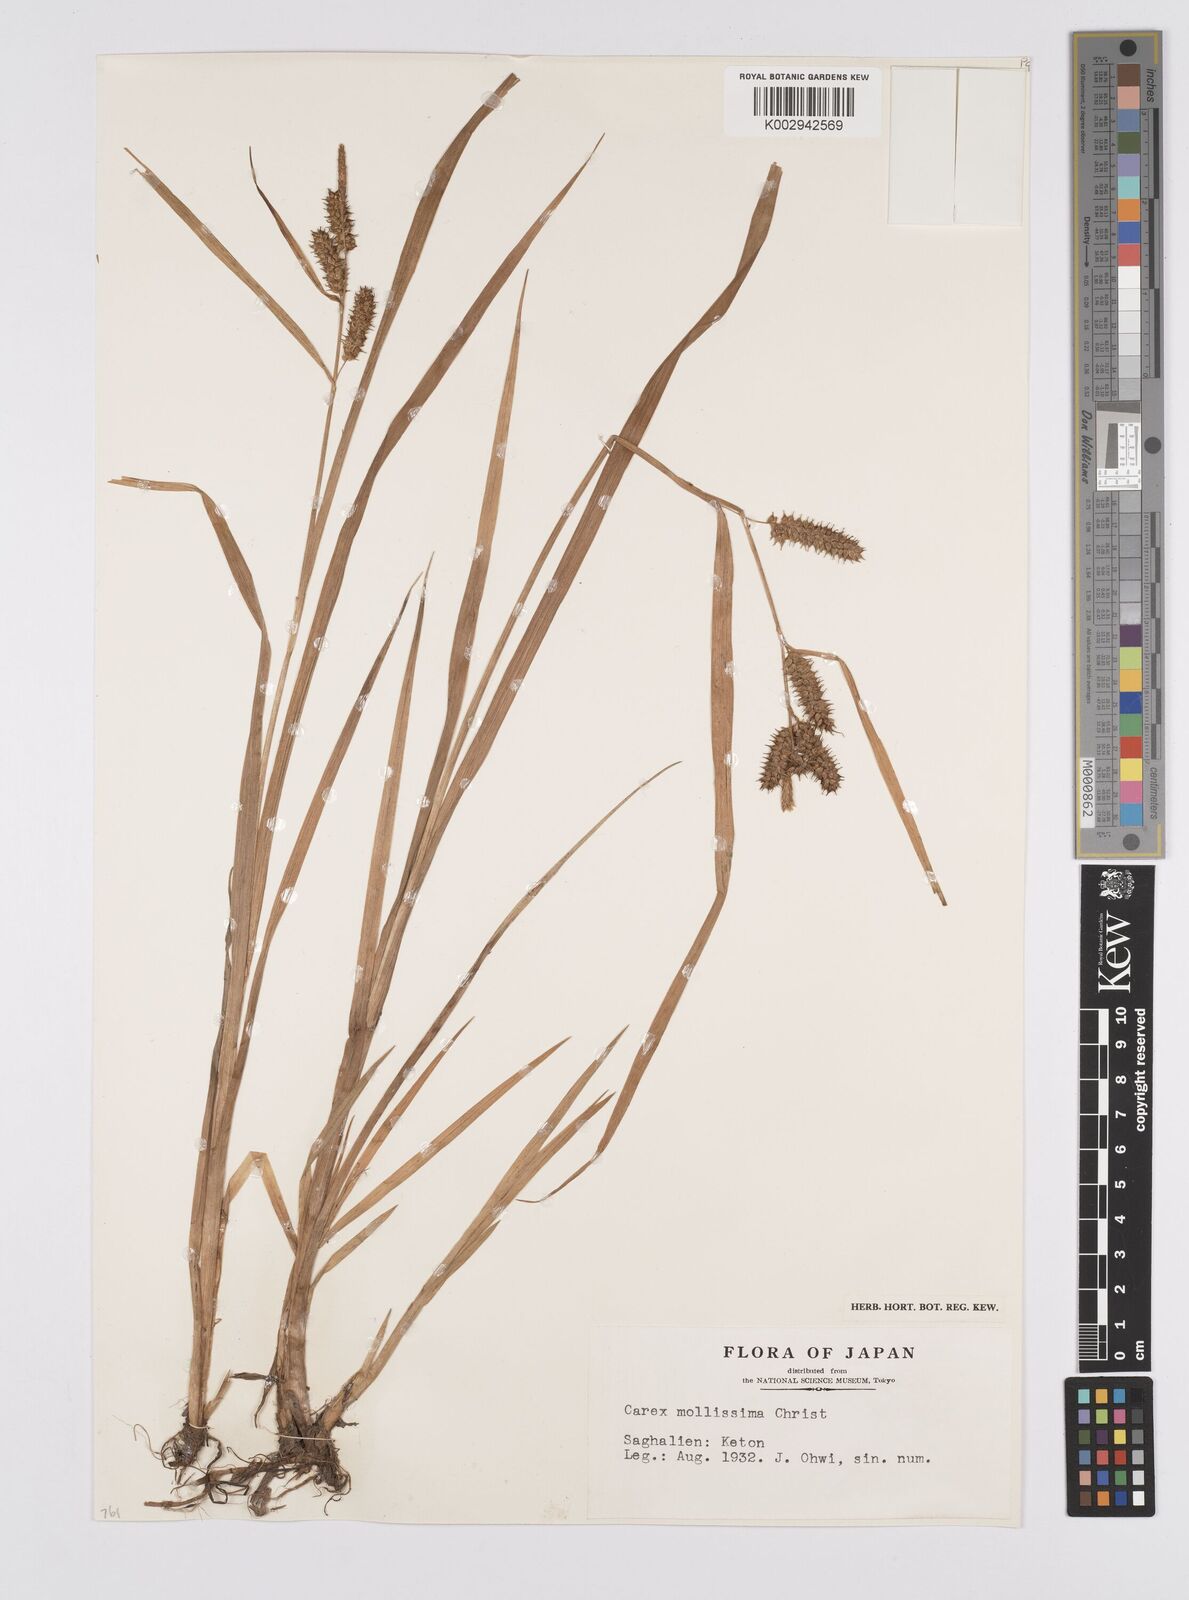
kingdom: Plantae
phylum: Tracheophyta
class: Liliopsida
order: Poales
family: Cyperaceae
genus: Carex
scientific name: Carex mollissima
